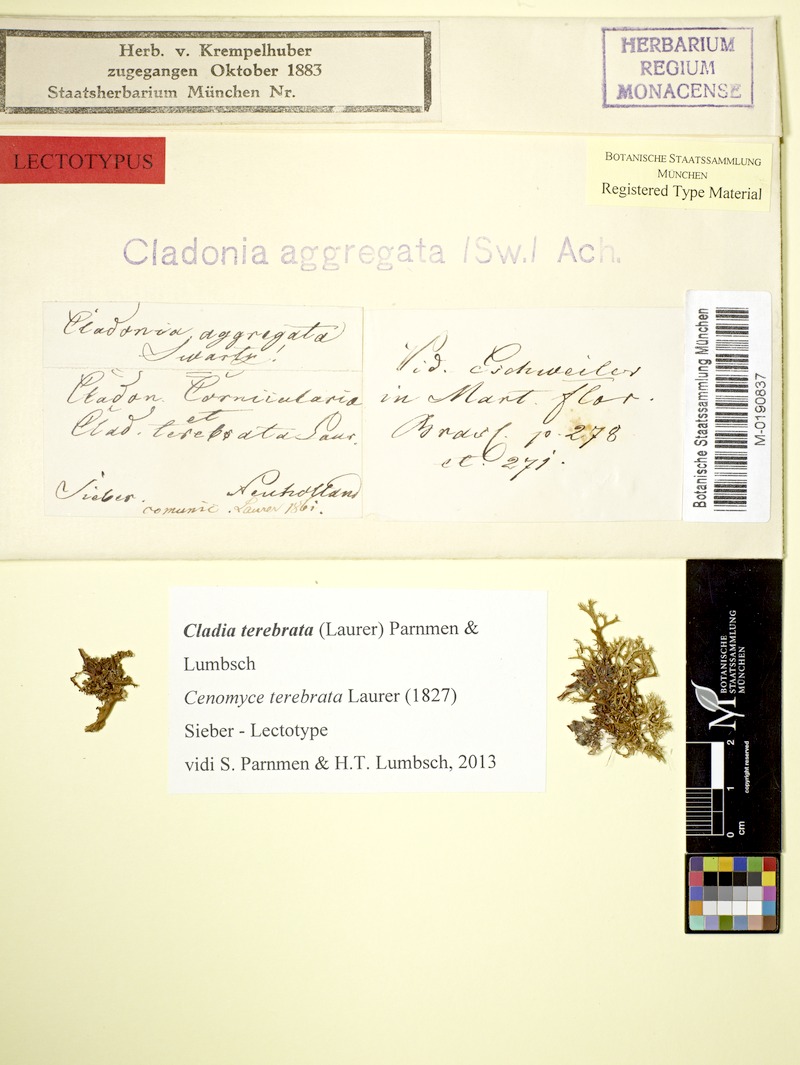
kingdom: Fungi
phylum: Ascomycota
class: Lecanoromycetes
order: Lecanorales
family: Cladoniaceae
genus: Cladia
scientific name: Cladia terebrata
